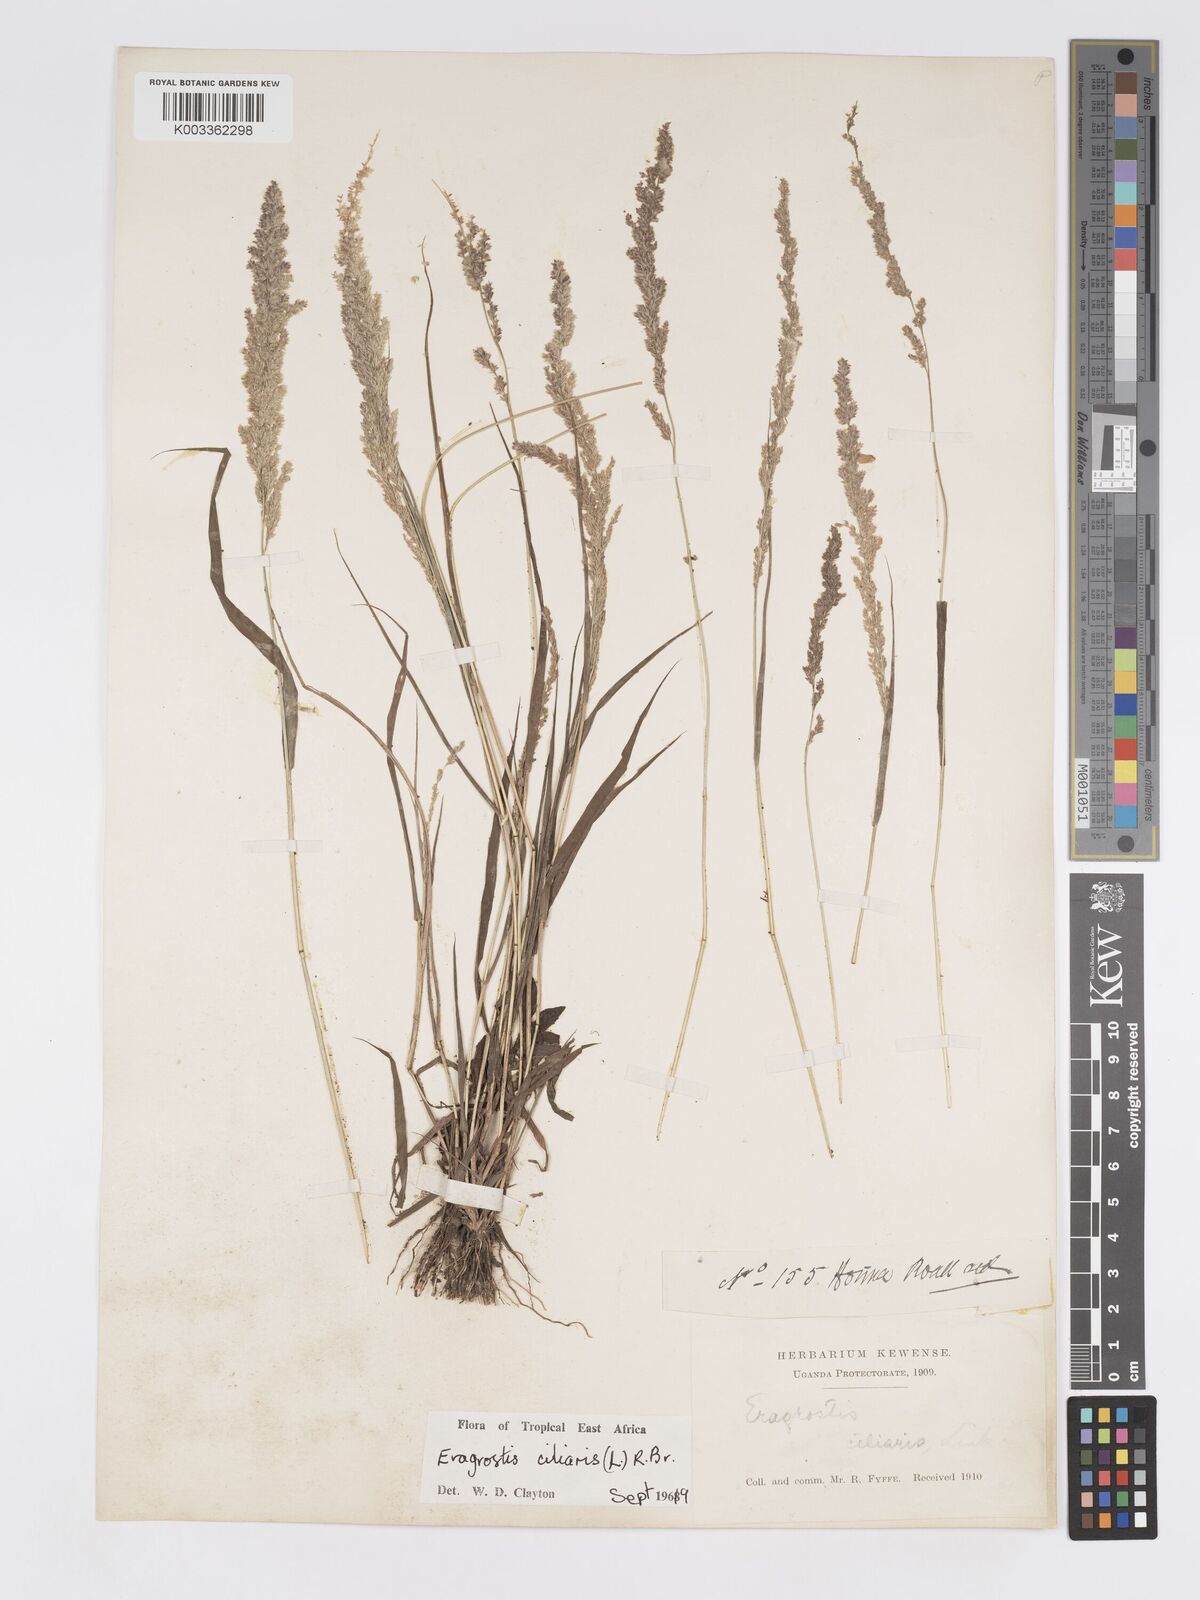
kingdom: Plantae
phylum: Tracheophyta
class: Liliopsida
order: Poales
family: Poaceae
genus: Eragrostis
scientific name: Eragrostis ciliaris
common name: Gophertail lovegrass
